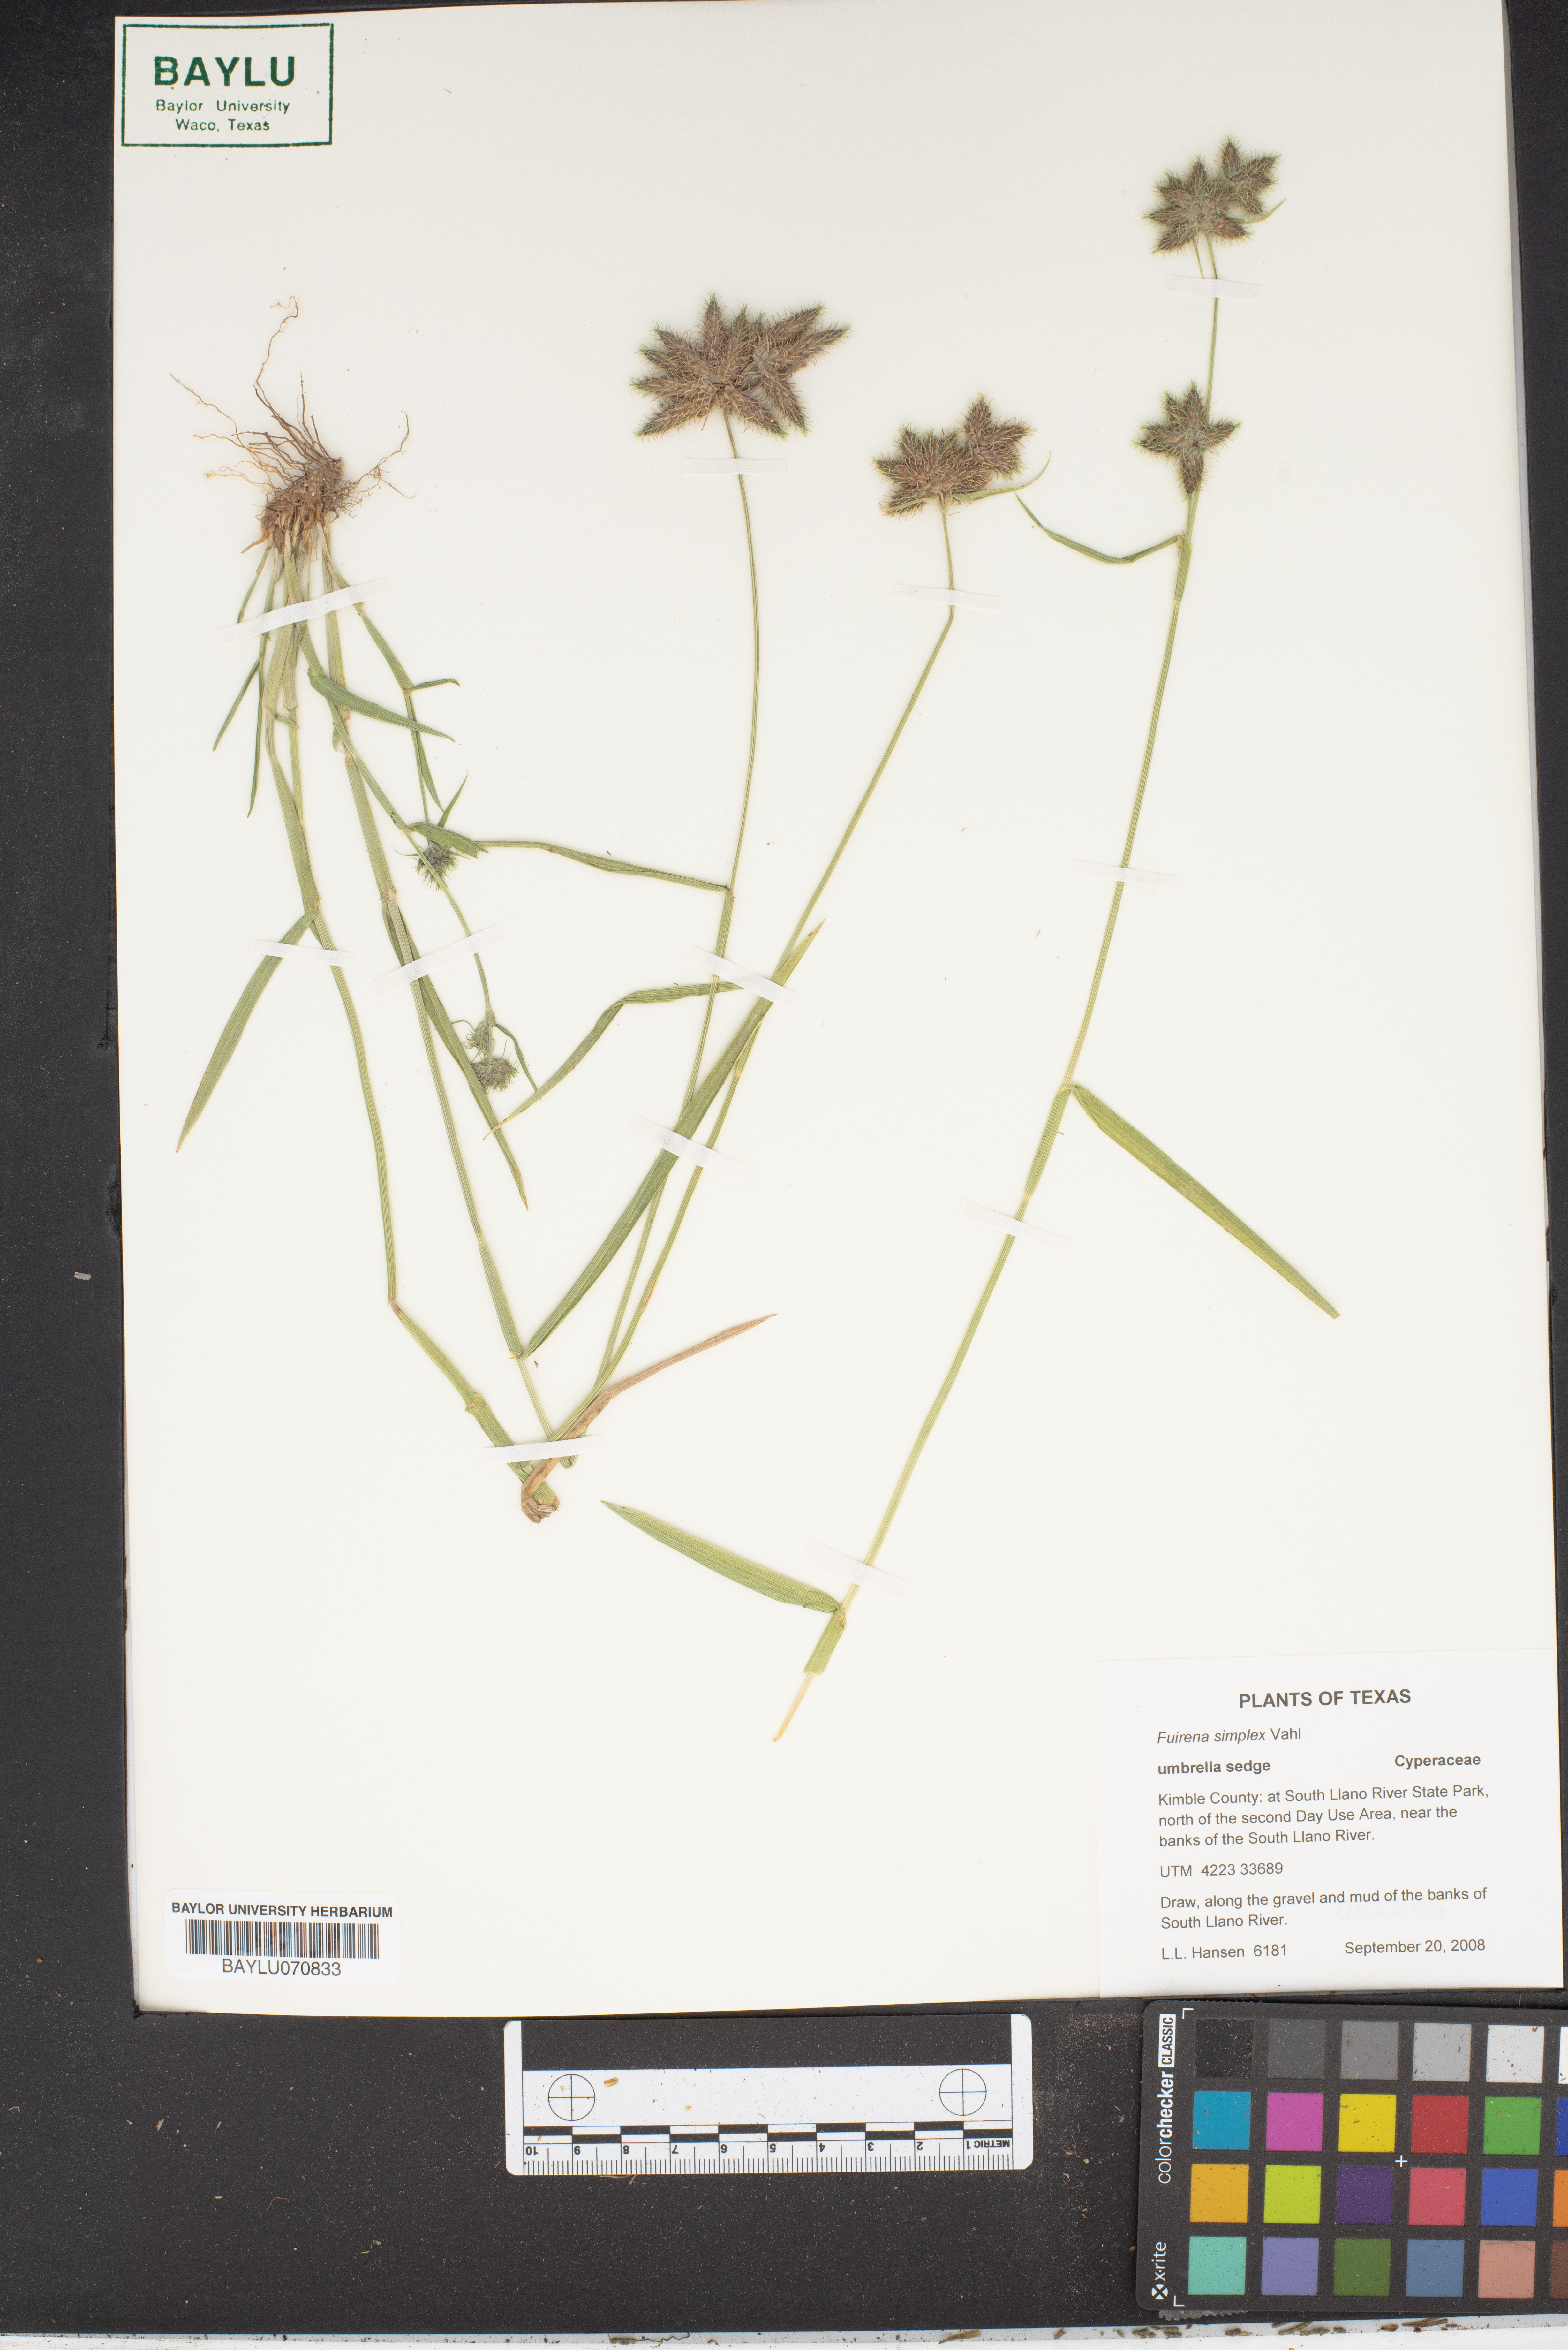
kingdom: Plantae
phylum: Tracheophyta
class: Liliopsida
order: Poales
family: Cyperaceae
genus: Fuirena
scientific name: Fuirena simplex
